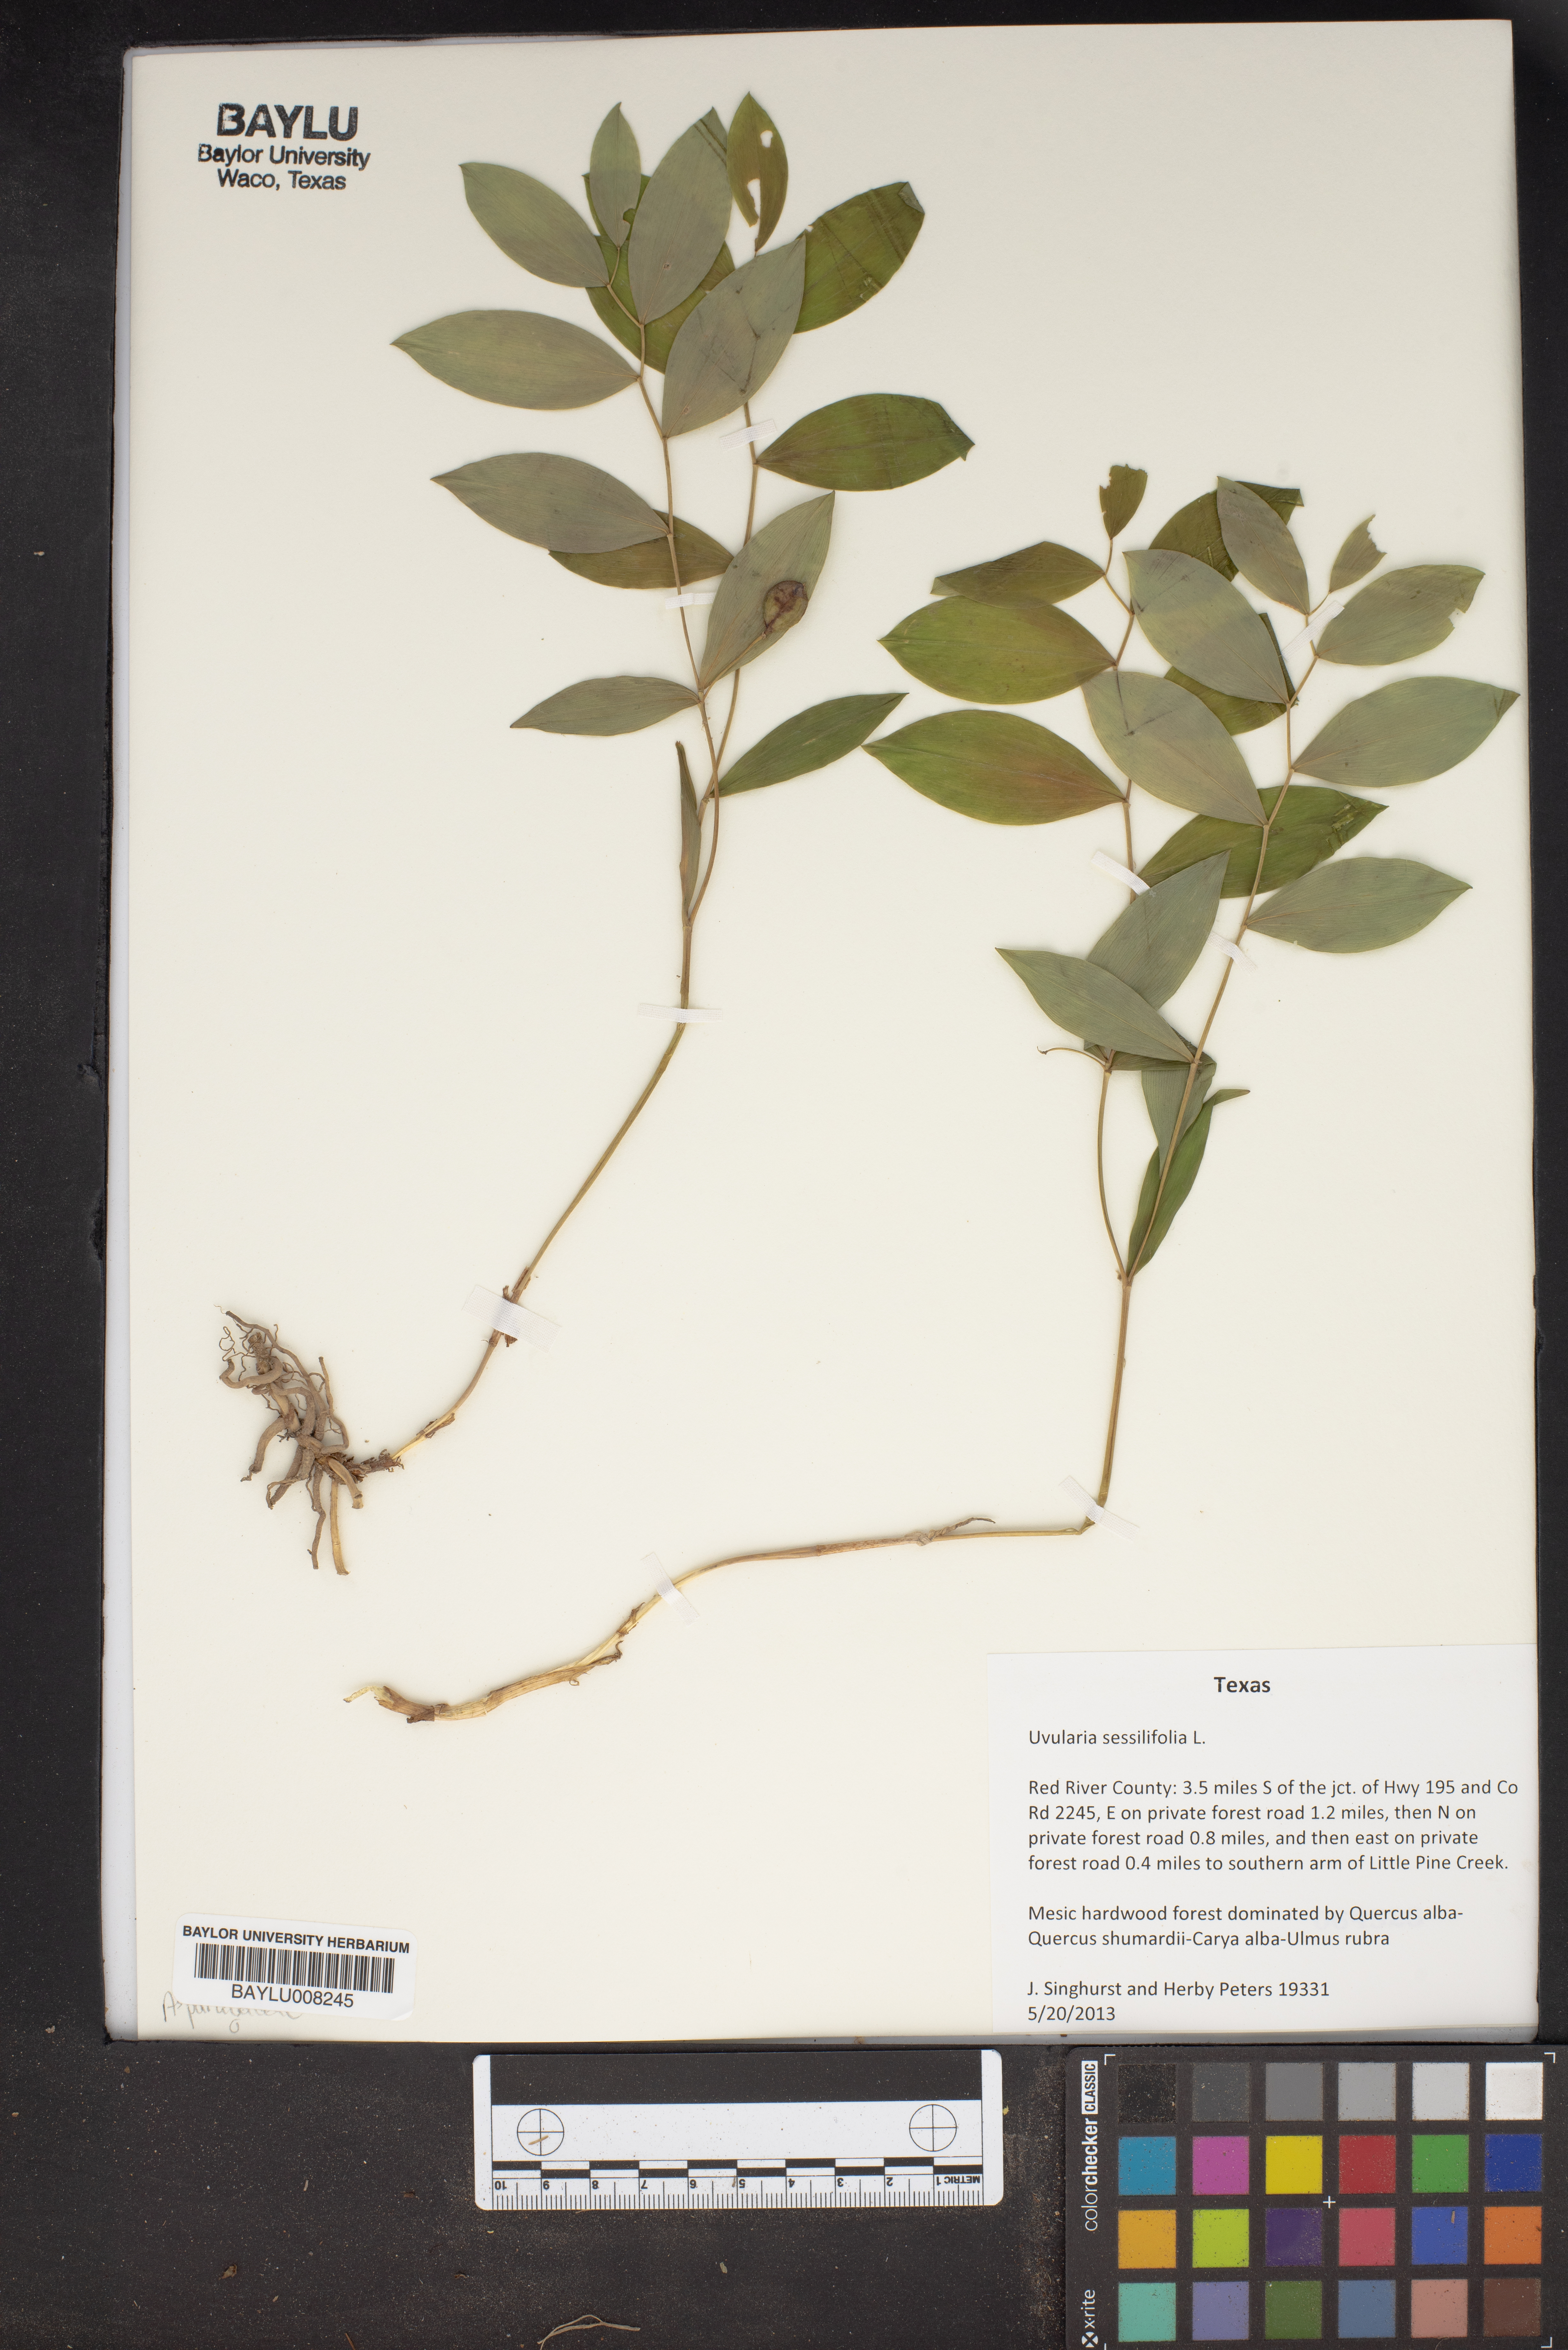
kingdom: Plantae
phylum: Tracheophyta
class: Liliopsida
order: Liliales
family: Colchicaceae
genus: Uvularia
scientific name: Uvularia sessilifolia
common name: Straw-lily
